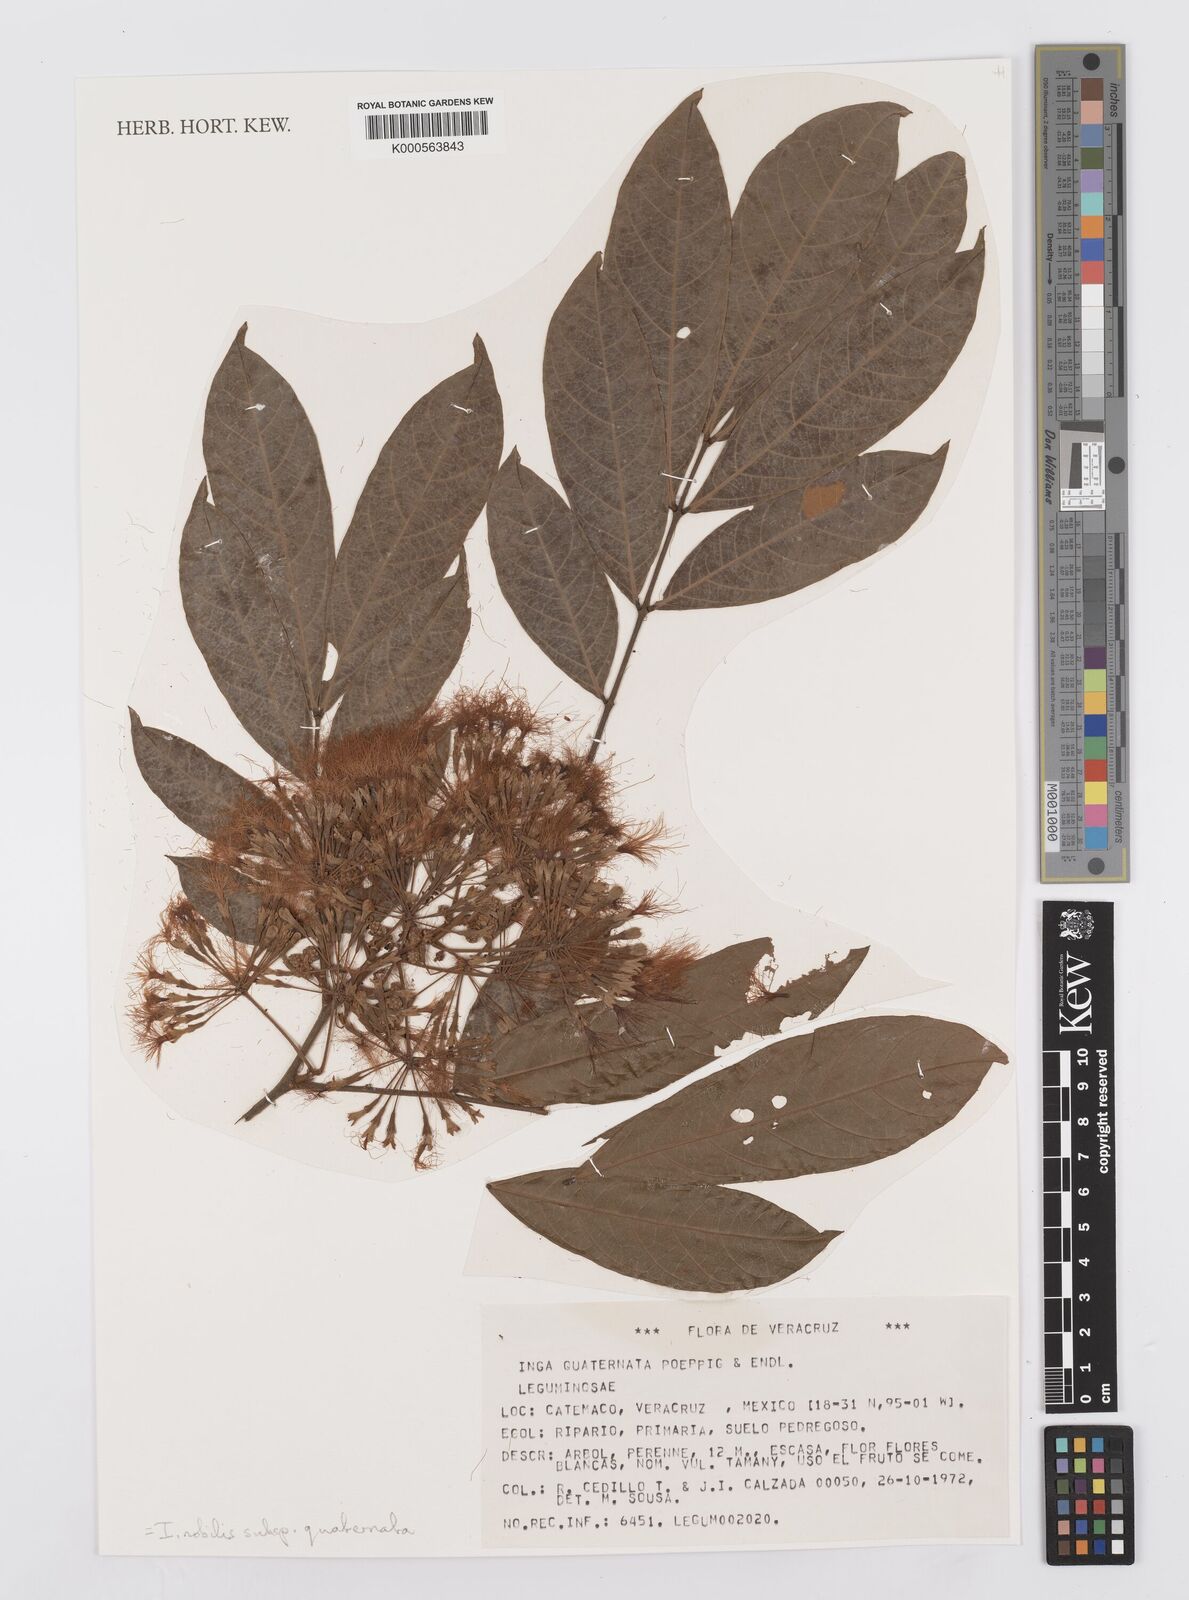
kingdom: Plantae
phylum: Tracheophyta
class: Magnoliopsida
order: Fabales
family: Fabaceae
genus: Inga
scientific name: Inga nobilis
